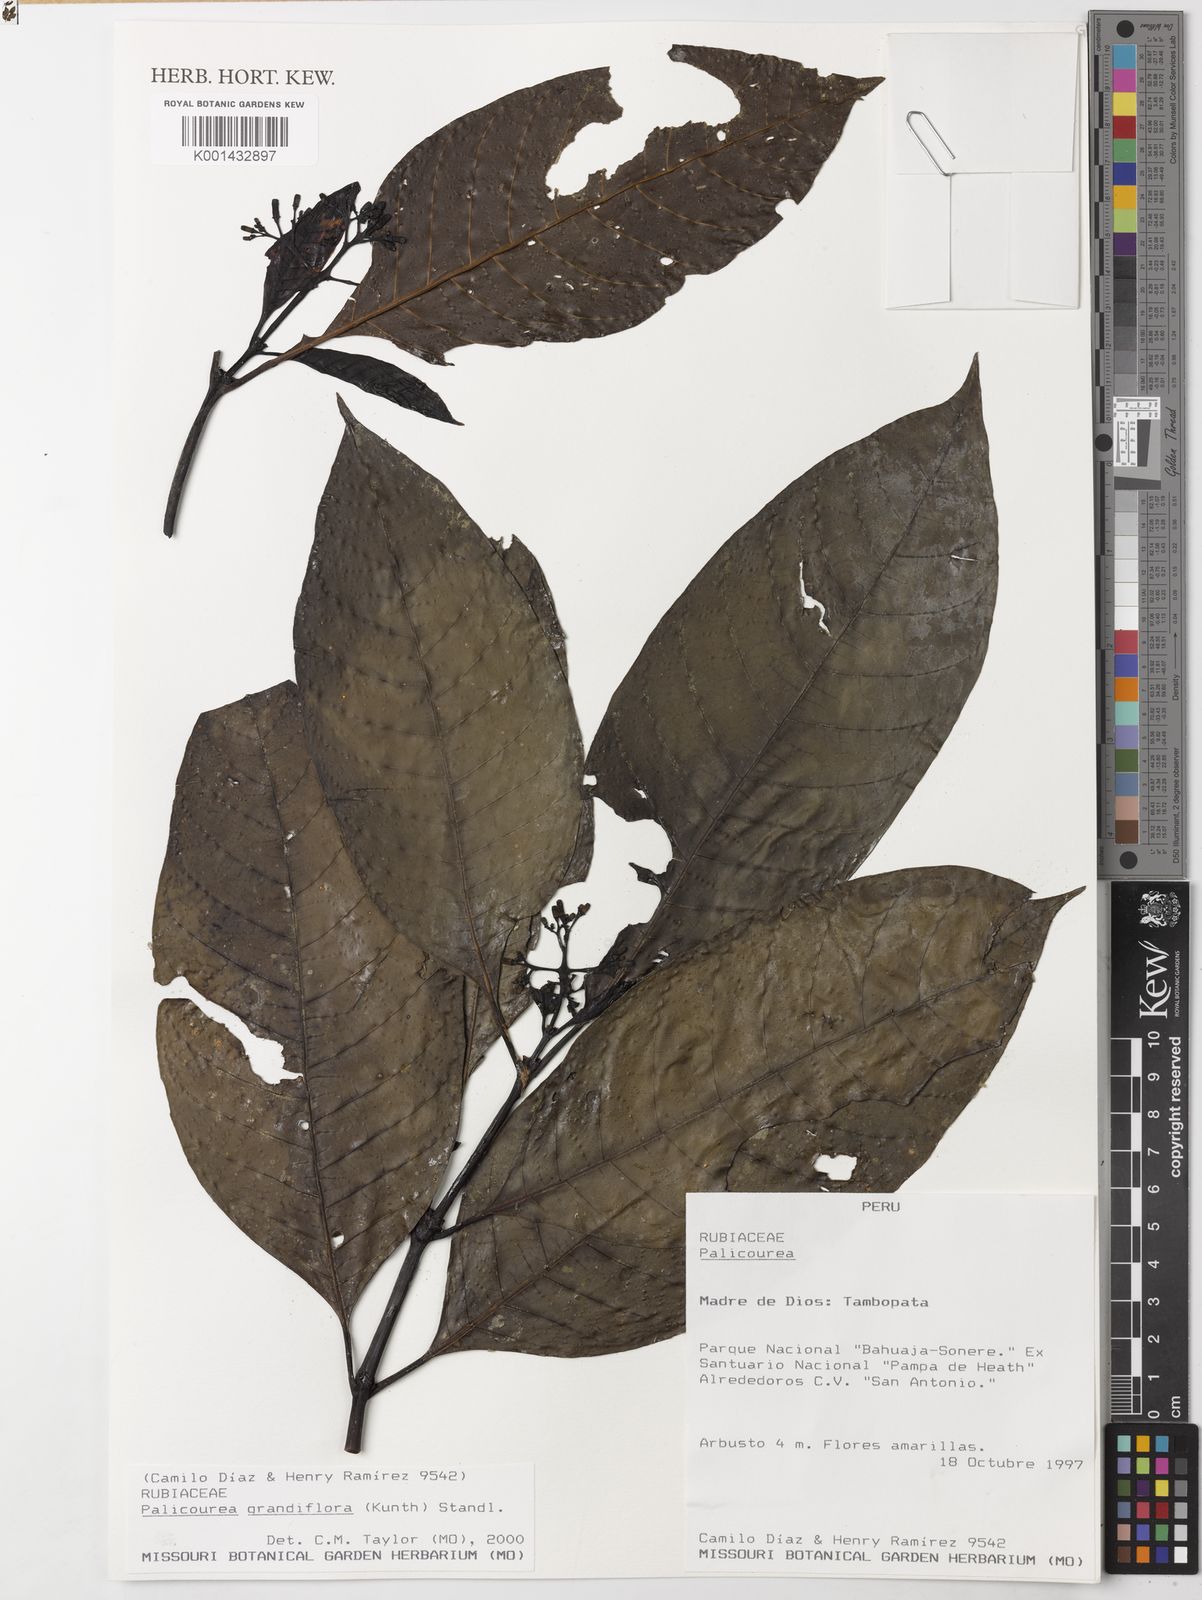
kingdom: Plantae
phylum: Tracheophyta
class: Magnoliopsida
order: Gentianales
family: Rubiaceae
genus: Palicourea
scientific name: Palicourea grandiflora
